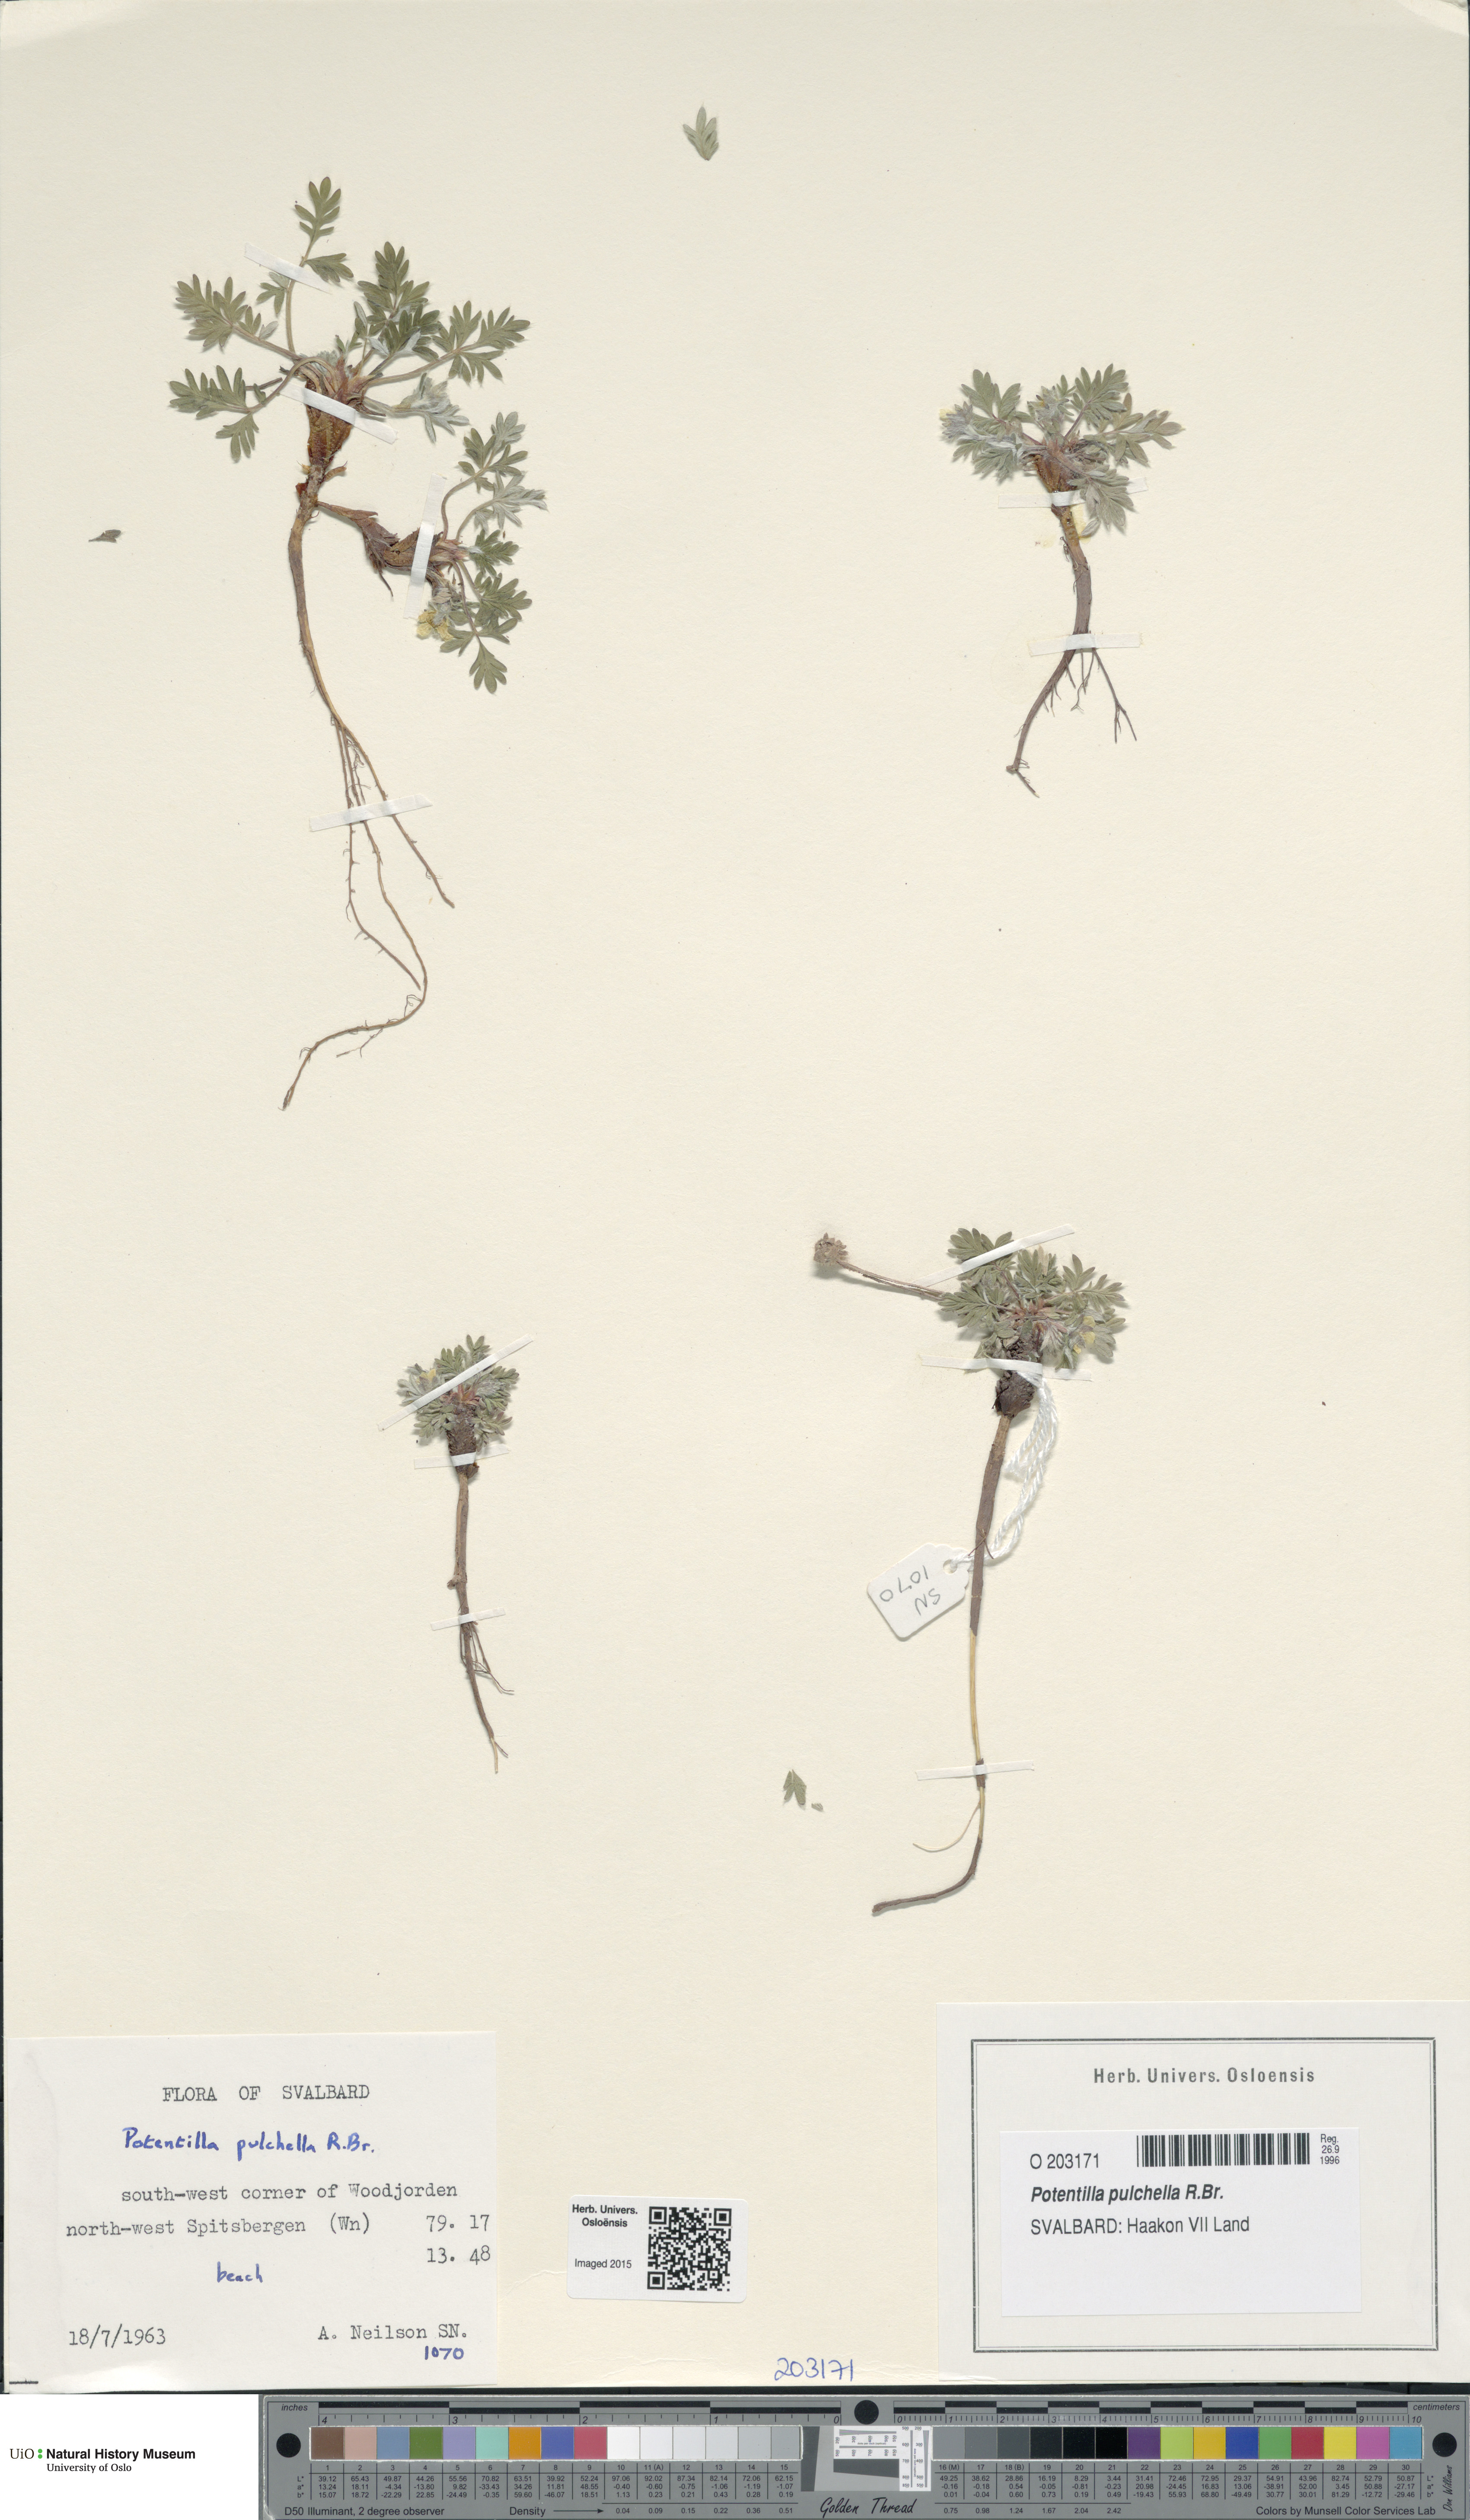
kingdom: Plantae
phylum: Tracheophyta
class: Magnoliopsida
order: Rosales
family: Rosaceae
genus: Potentilla
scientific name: Potentilla pulchella
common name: Pretty cinquefoil
